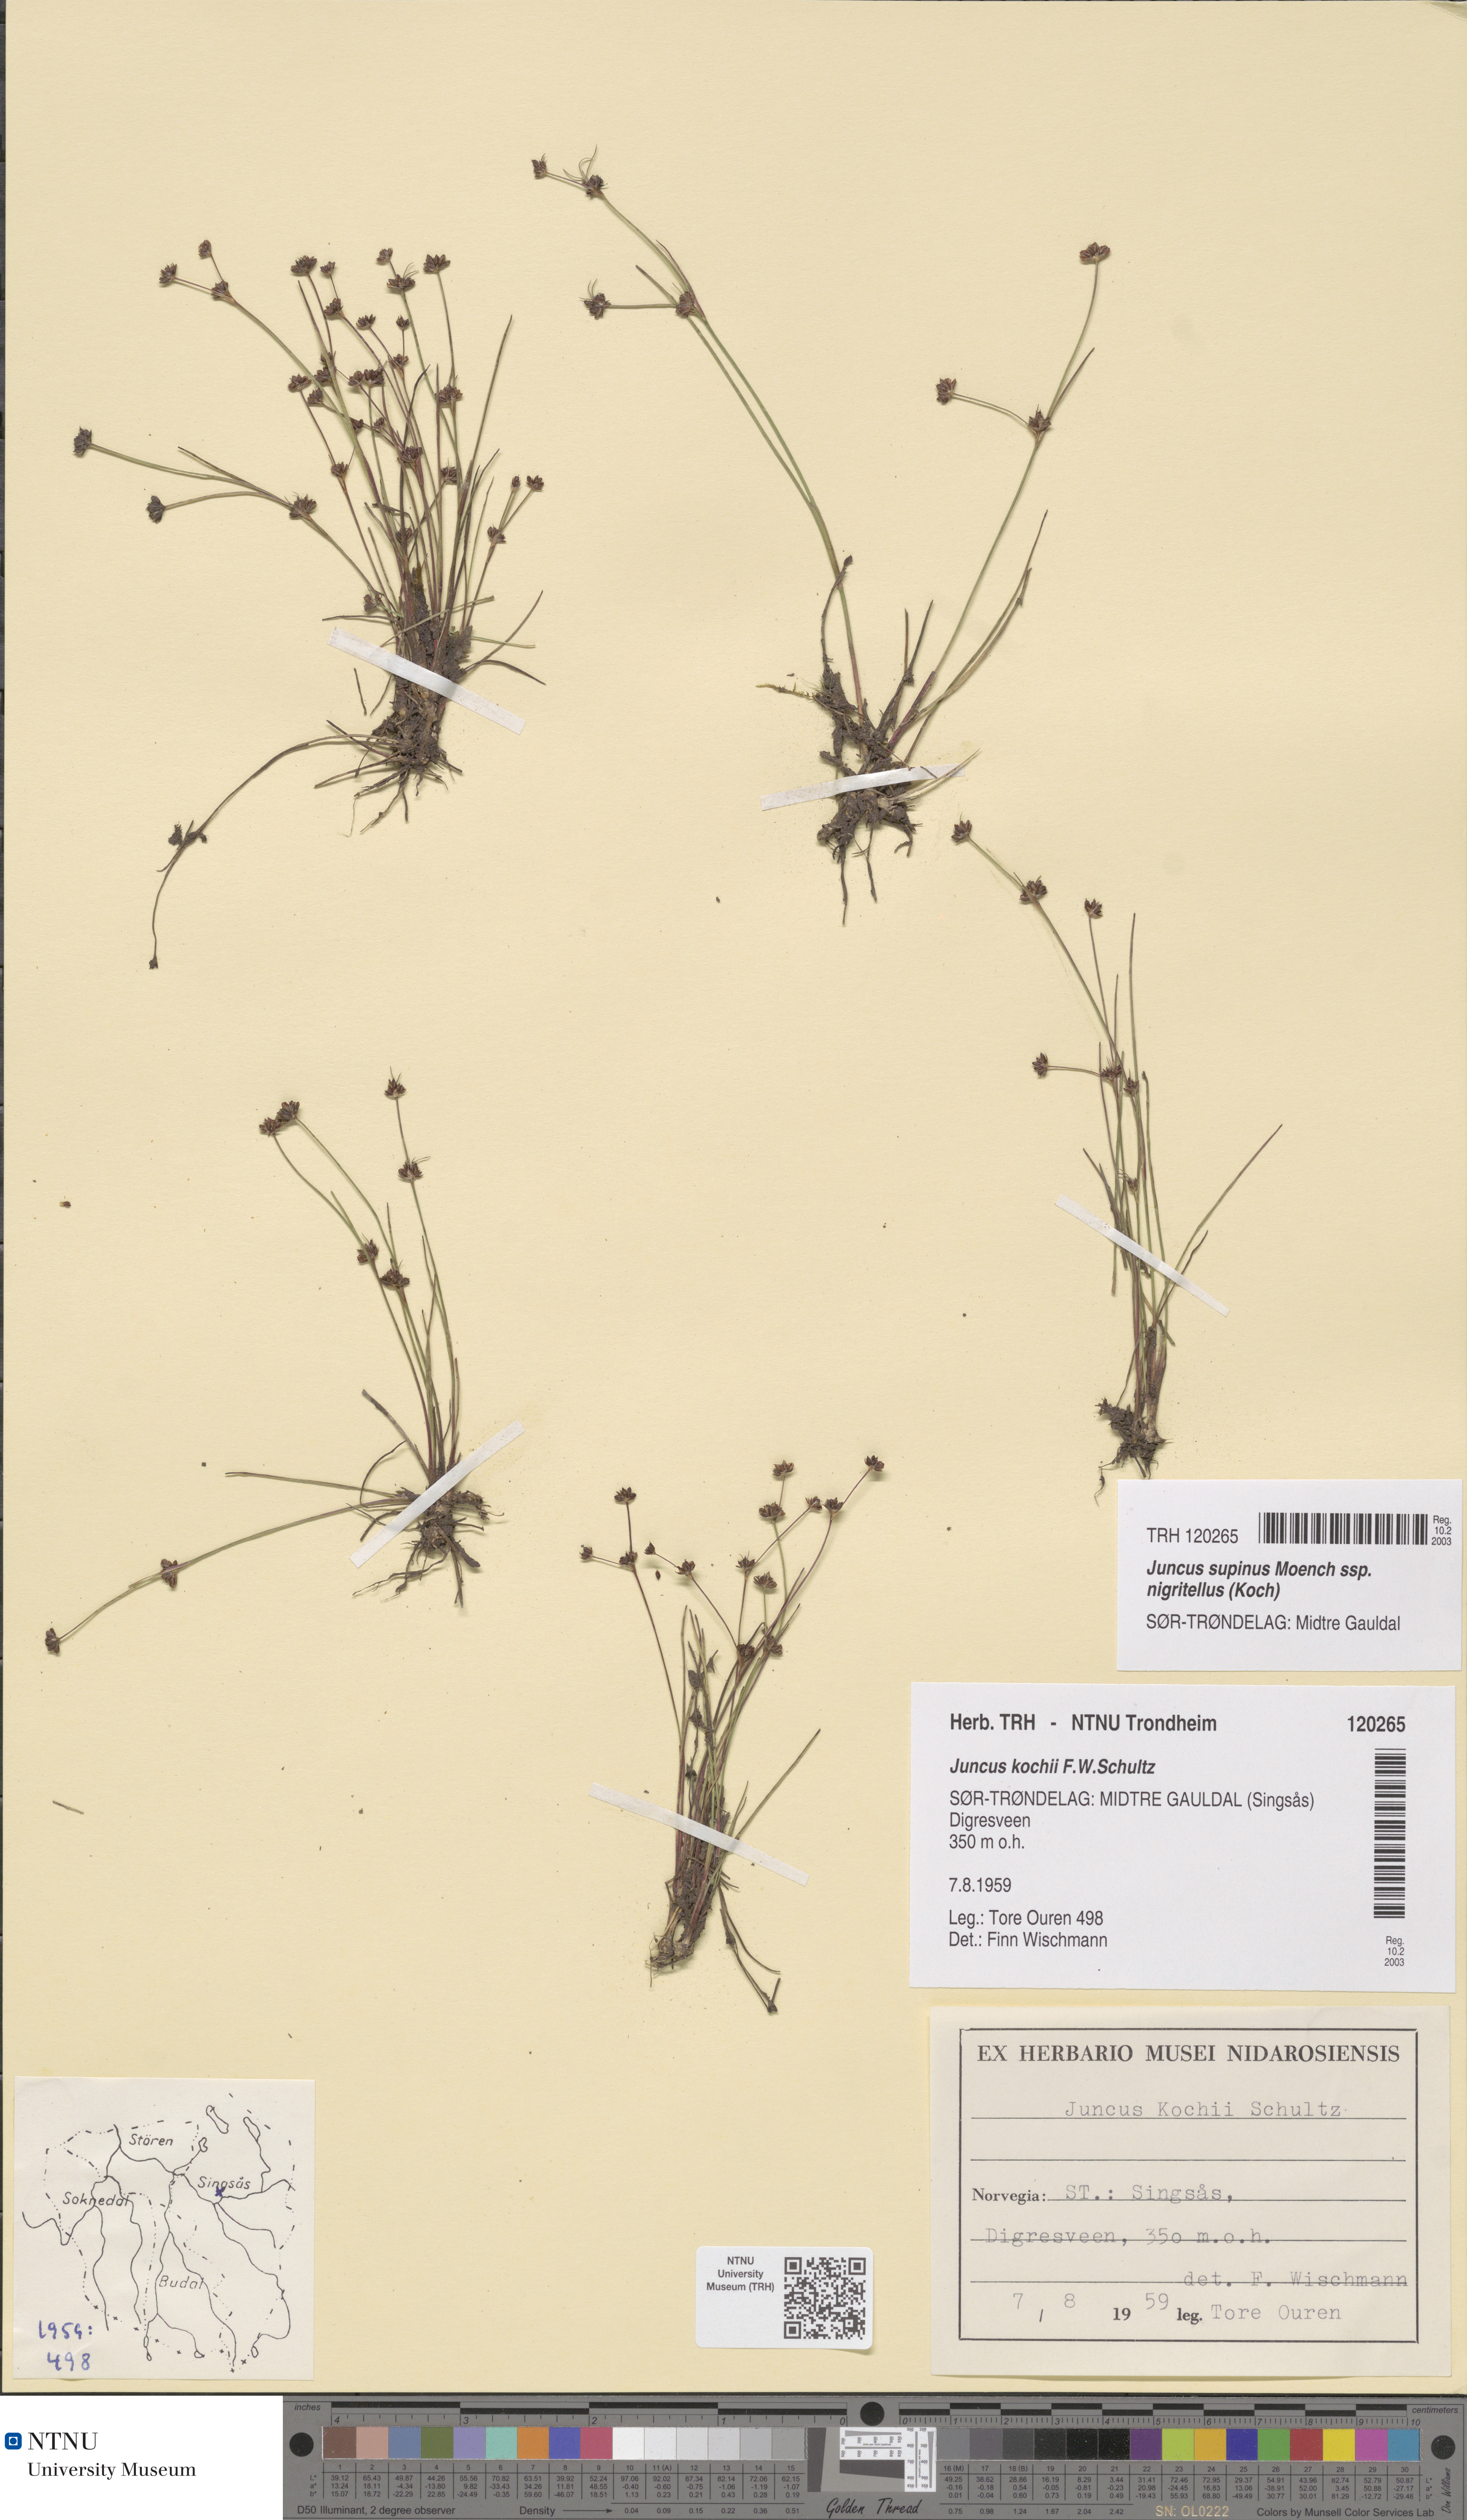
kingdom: Plantae
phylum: Tracheophyta
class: Liliopsida
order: Poales
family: Juncaceae
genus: Juncus
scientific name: Juncus bulbosus
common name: Bulbous rush
